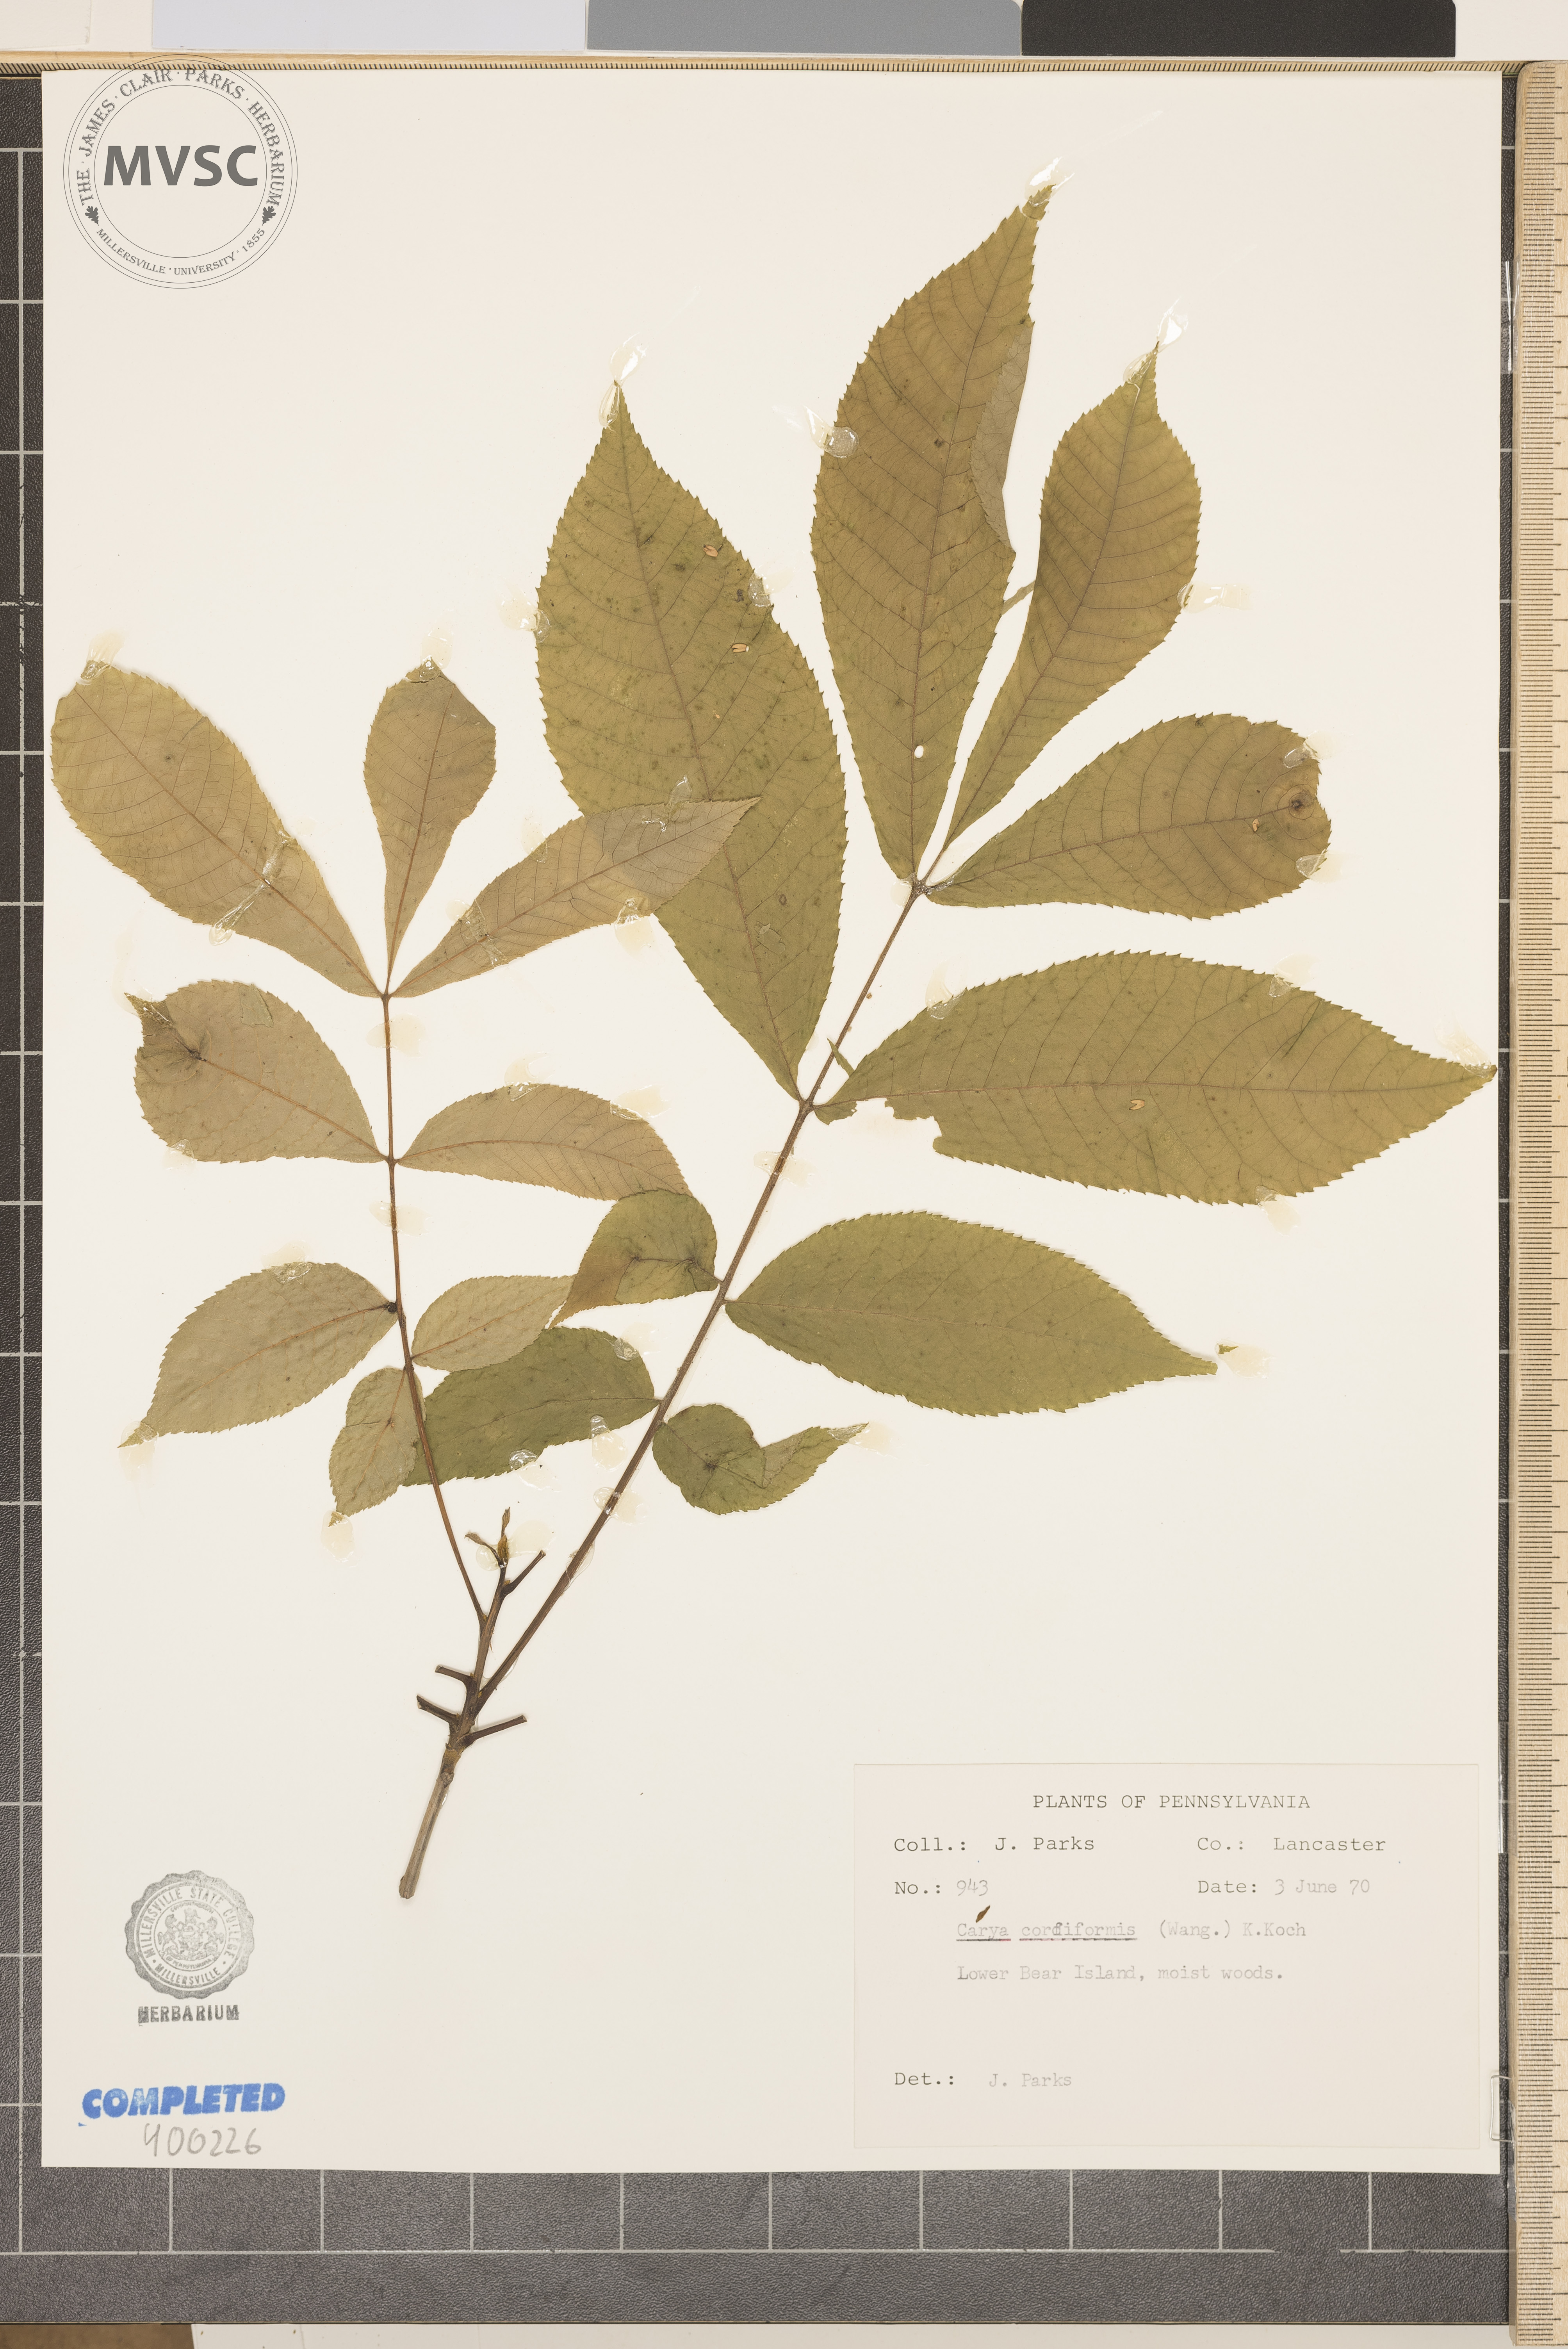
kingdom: Plantae
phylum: Tracheophyta
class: Magnoliopsida
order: Fagales
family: Juglandaceae
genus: Carya
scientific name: Carya cordiformis
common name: bitternut hickory
